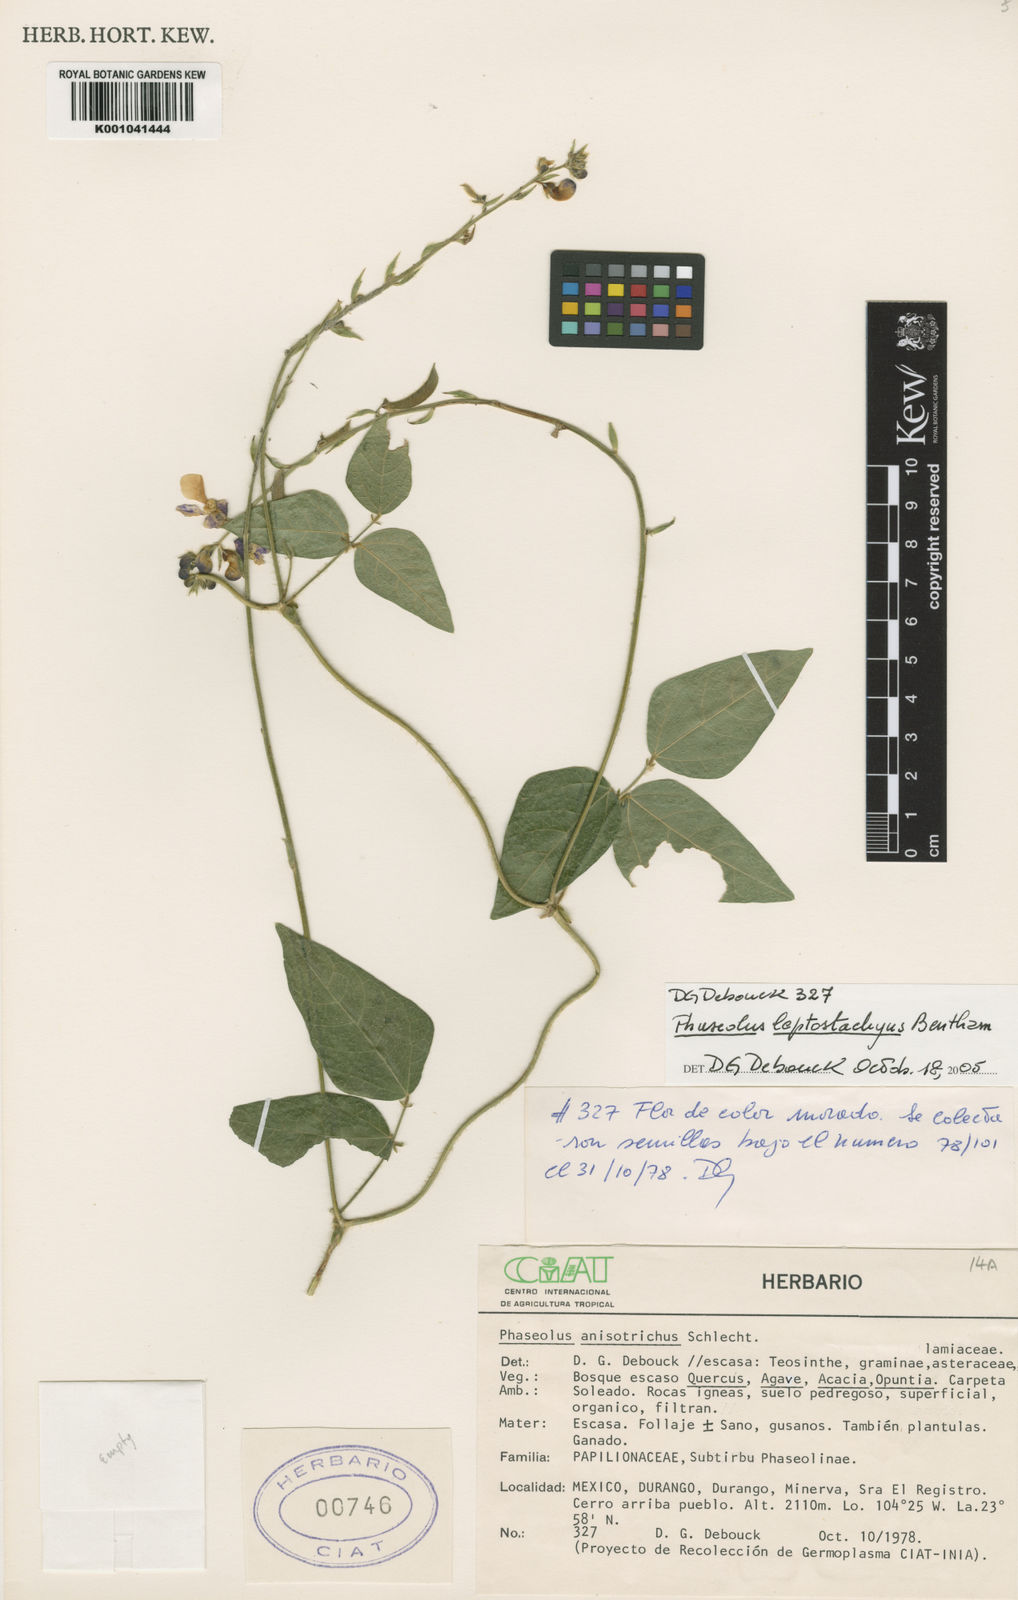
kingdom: Plantae
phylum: Tracheophyta
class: Magnoliopsida
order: Fabales
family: Fabaceae
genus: Phaseolus
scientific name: Phaseolus
